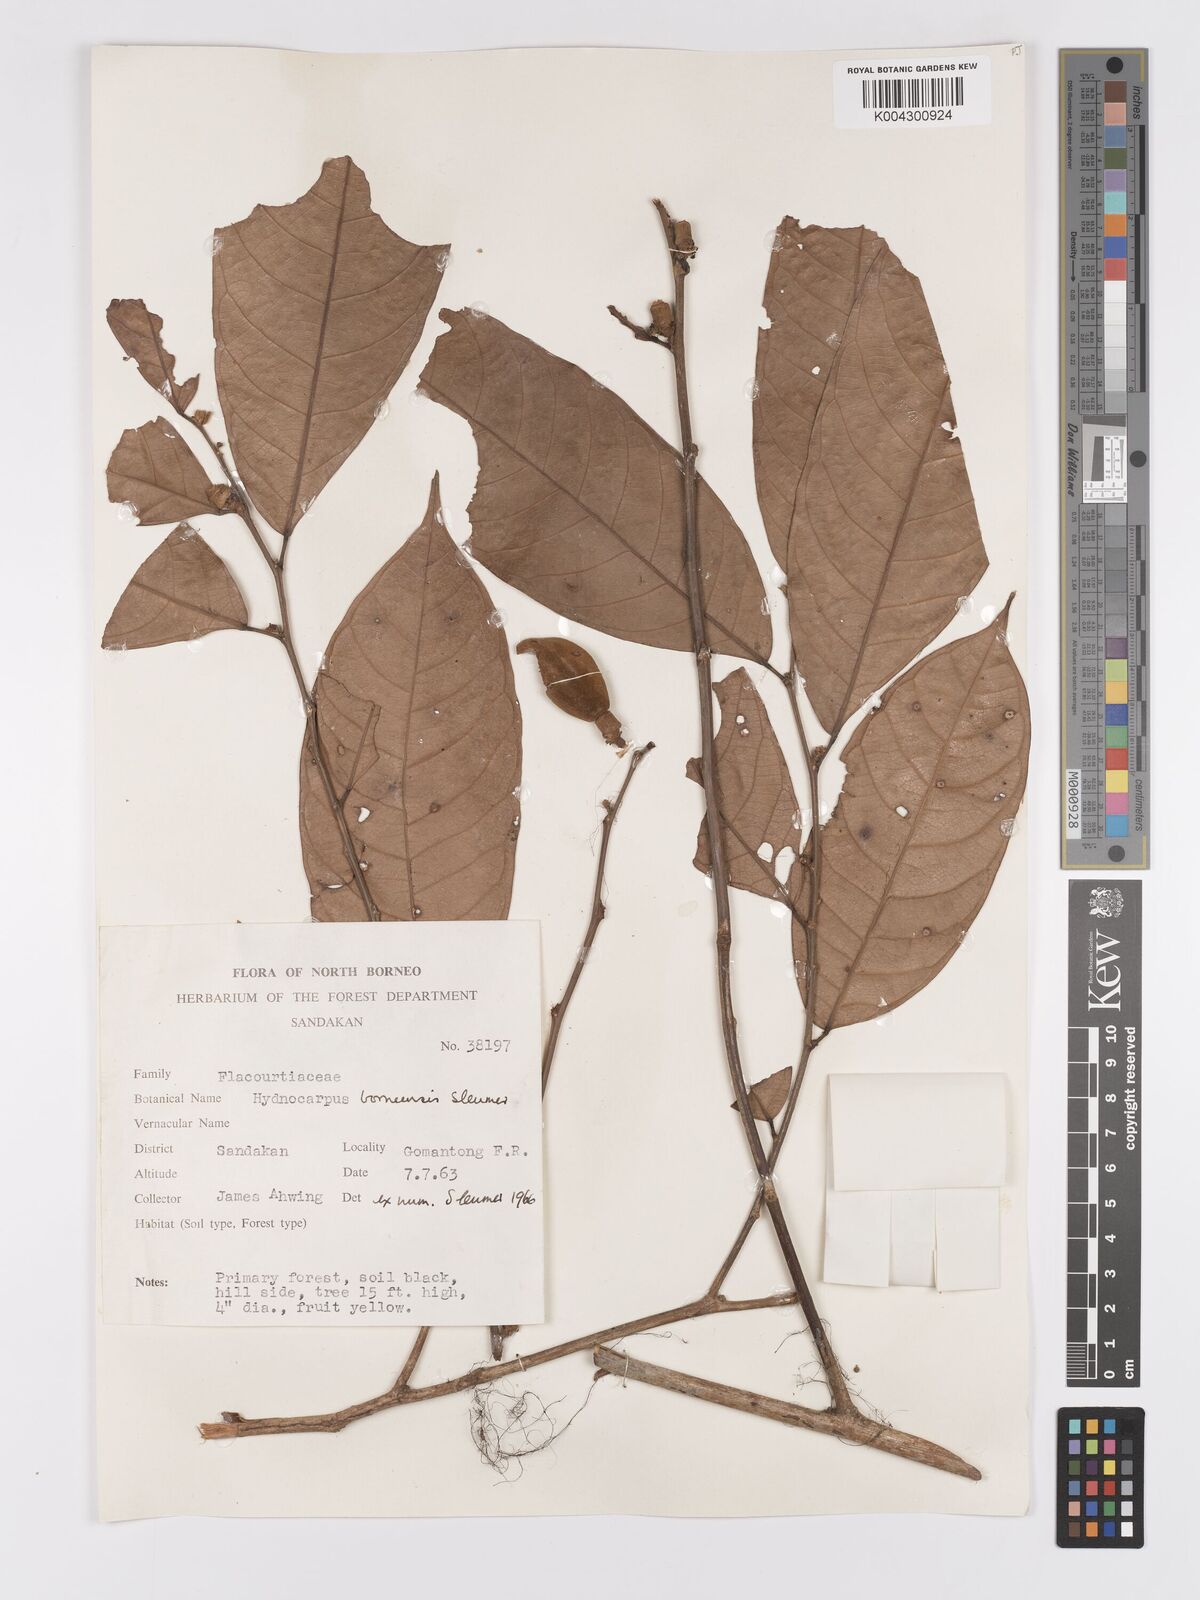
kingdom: Plantae
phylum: Tracheophyta
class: Magnoliopsida
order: Malpighiales
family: Achariaceae
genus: Hydnocarpus
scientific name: Hydnocarpus borneensis
